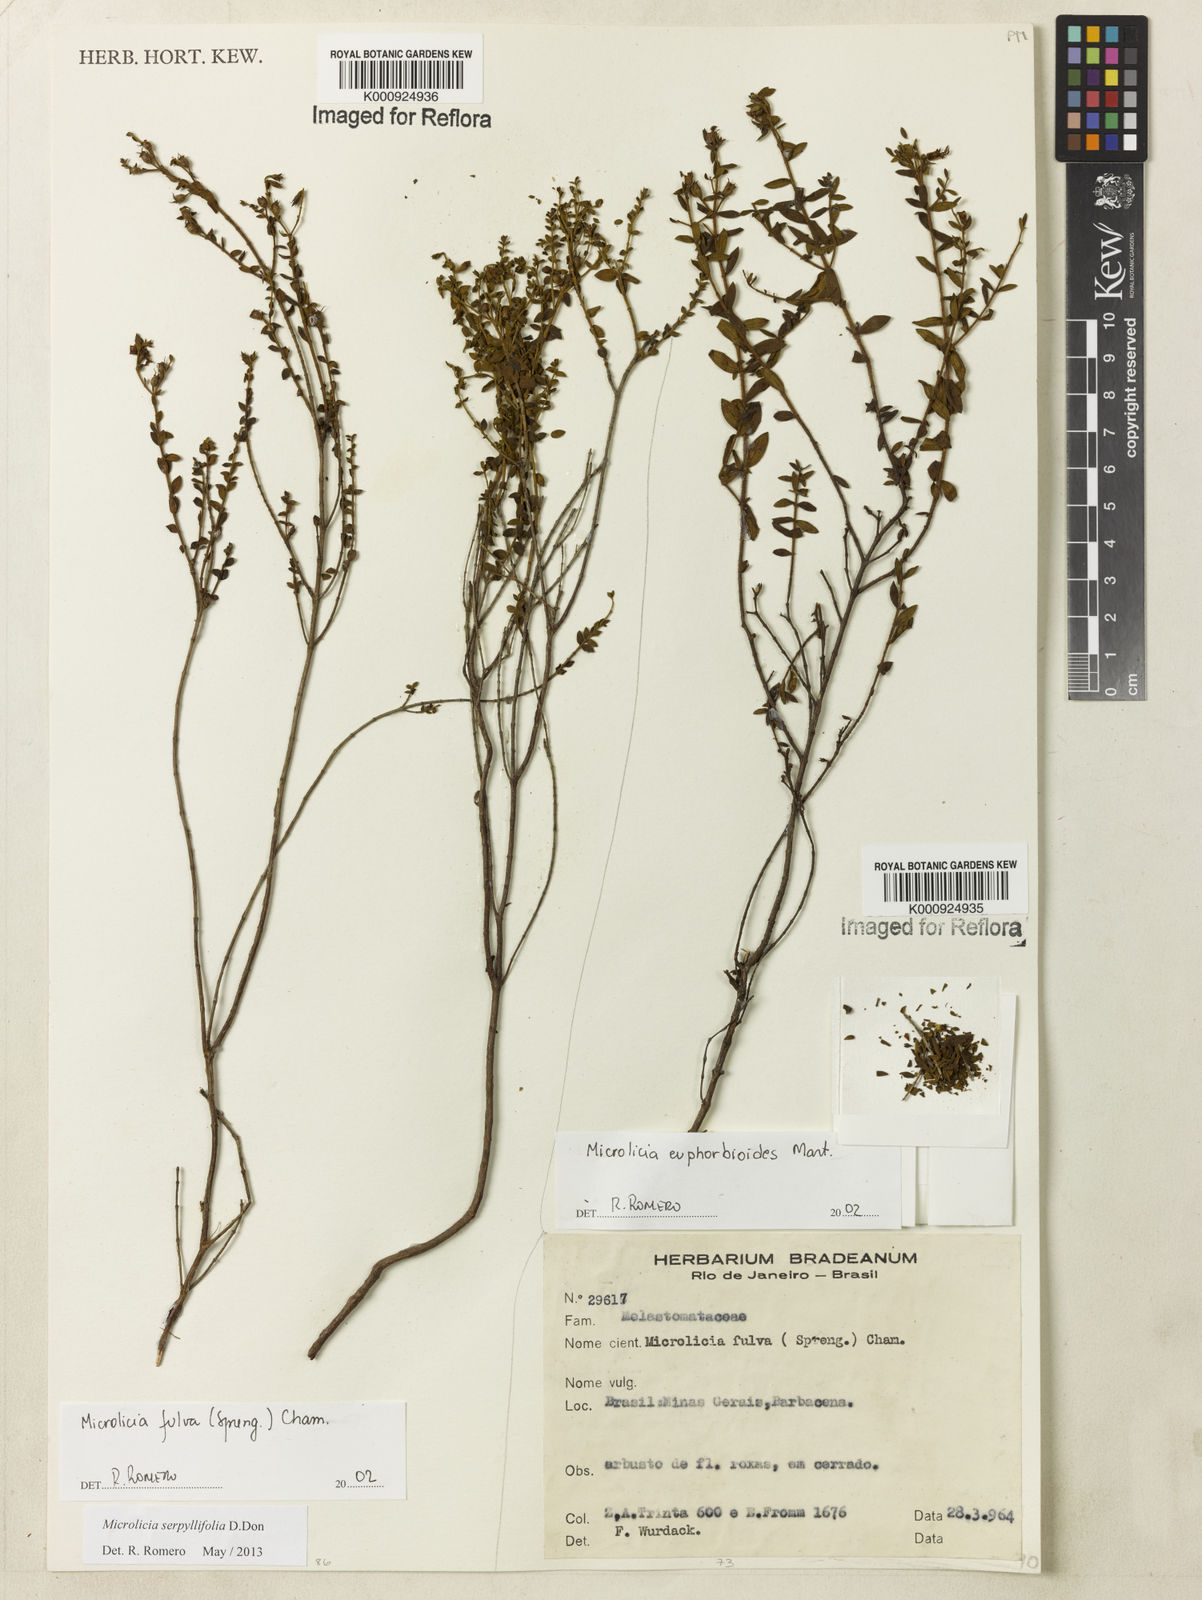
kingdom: Plantae
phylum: Tracheophyta
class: Magnoliopsida
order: Myrtales
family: Melastomataceae
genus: Microlicia
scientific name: Microlicia fulva
